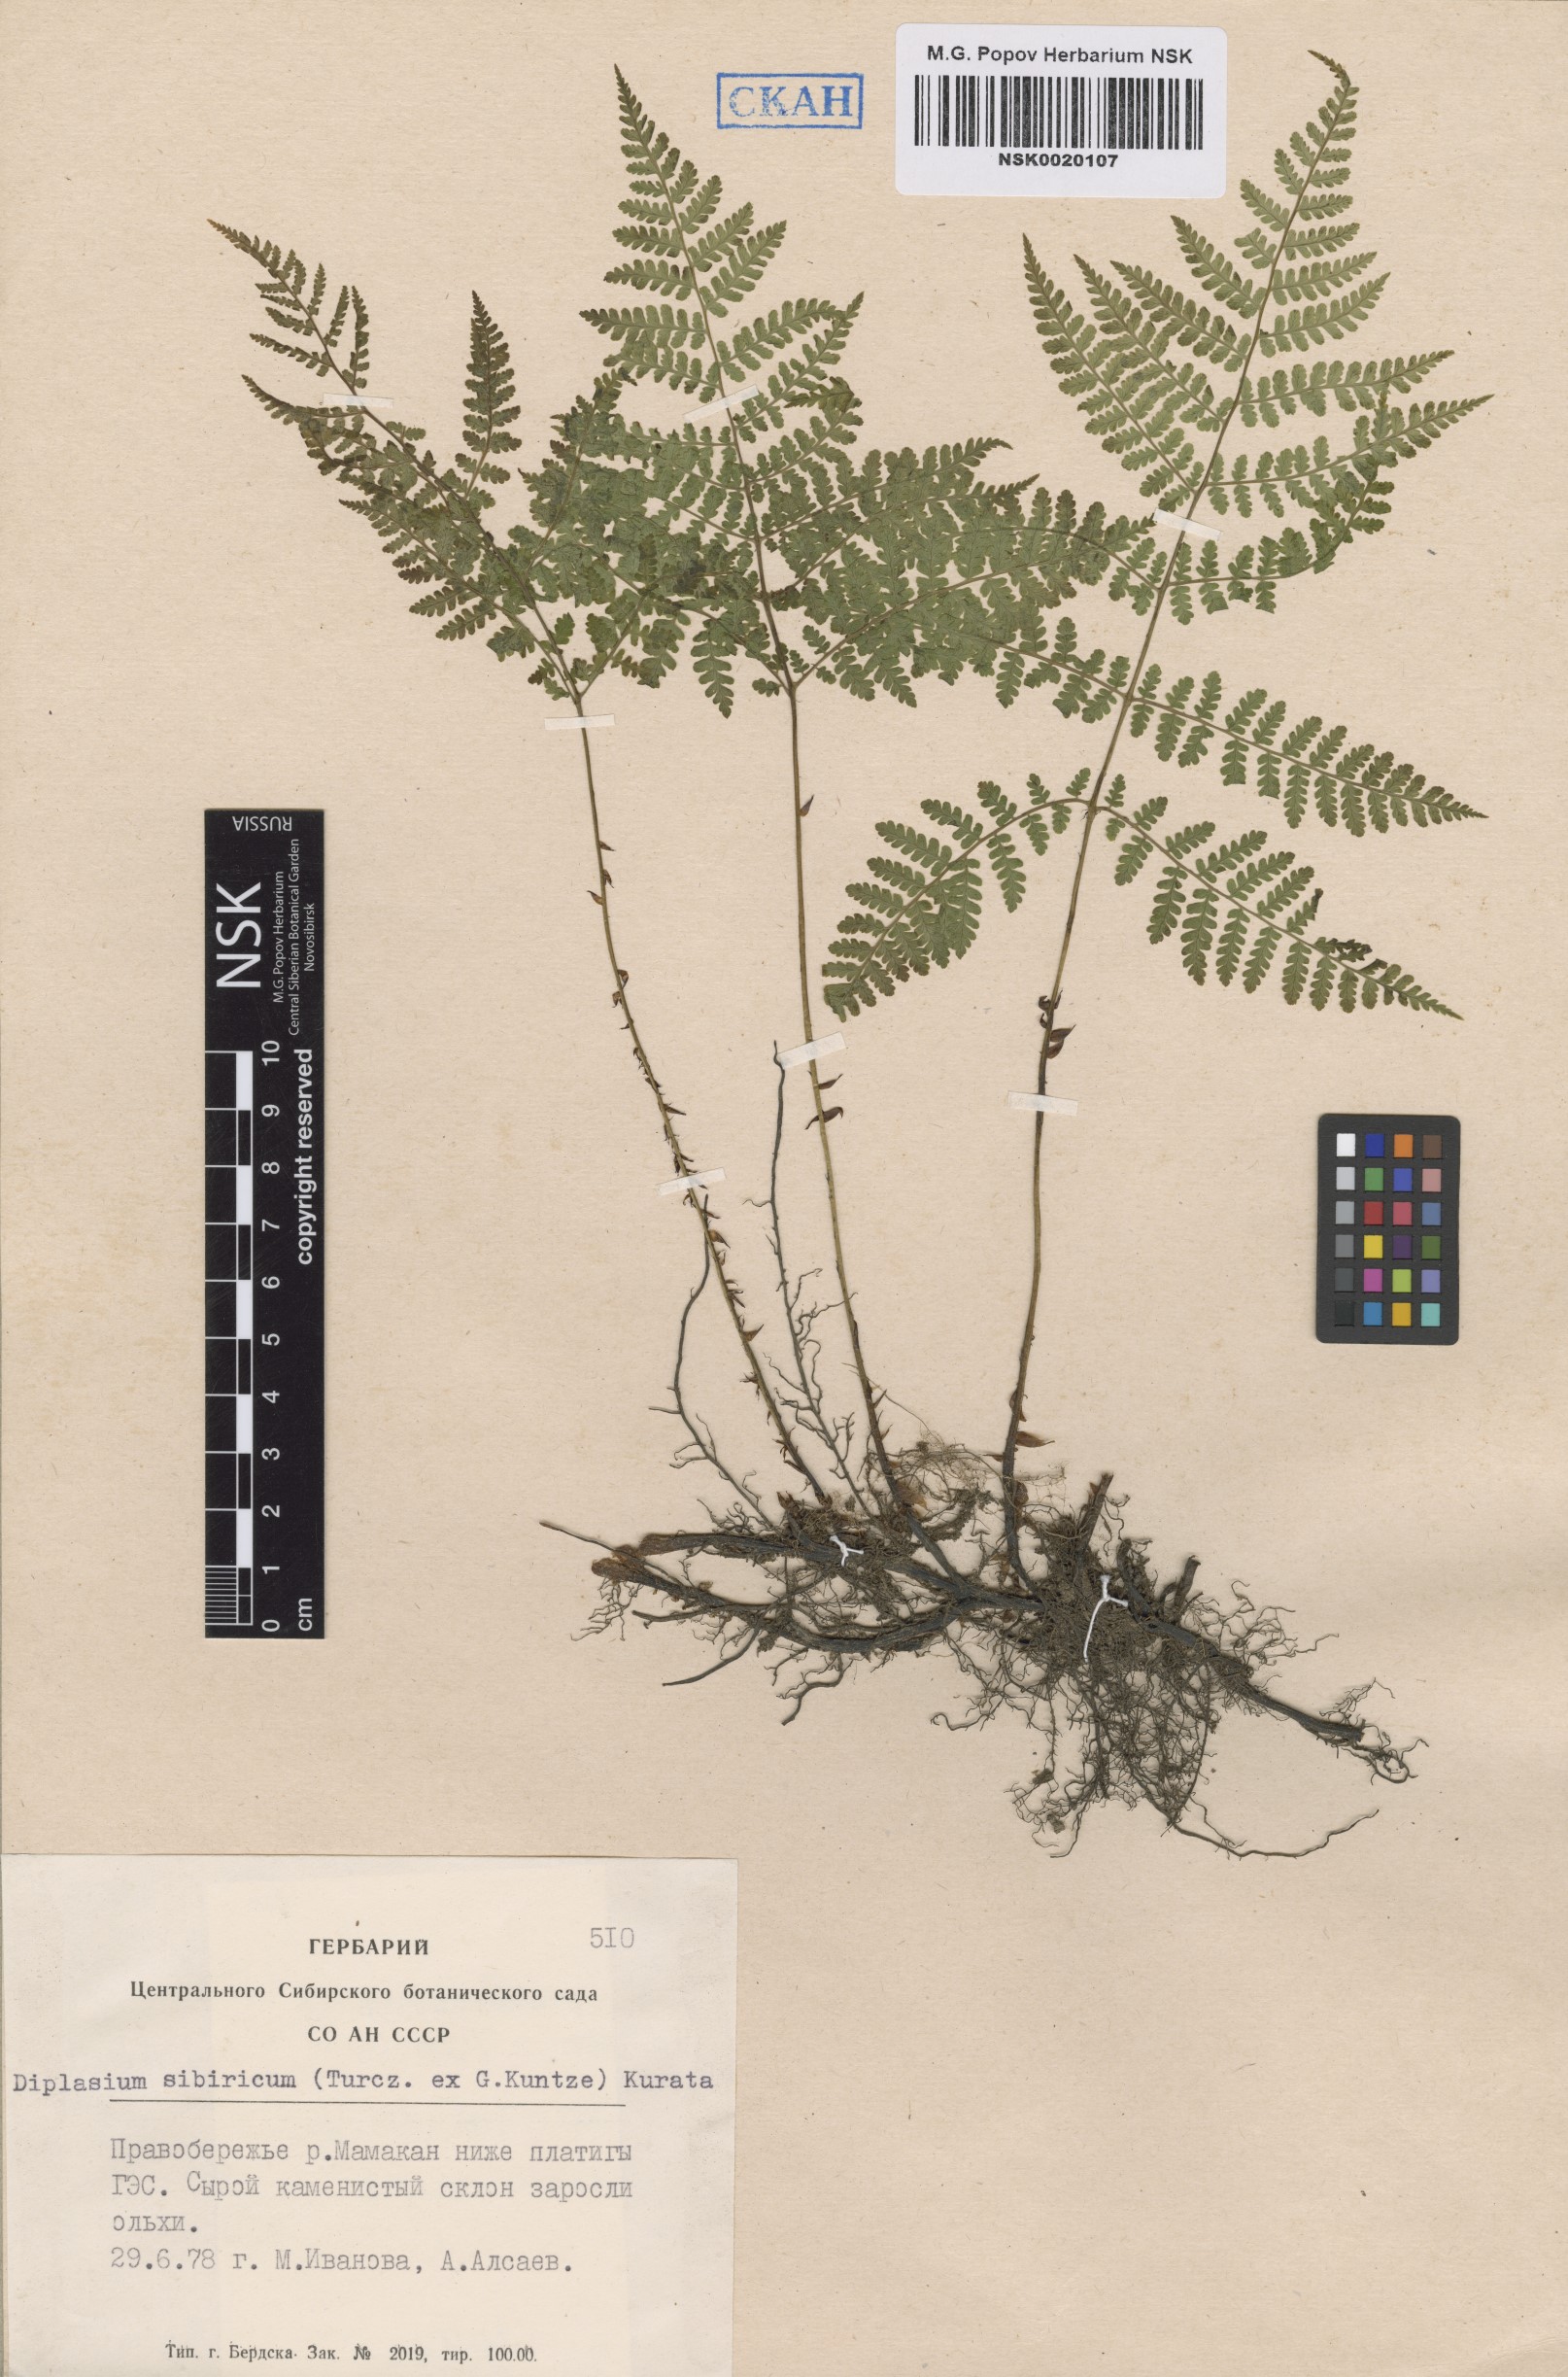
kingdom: Plantae
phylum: Tracheophyta
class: Polypodiopsida
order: Polypodiales
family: Athyriaceae
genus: Diplazium
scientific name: Diplazium sibiricum
